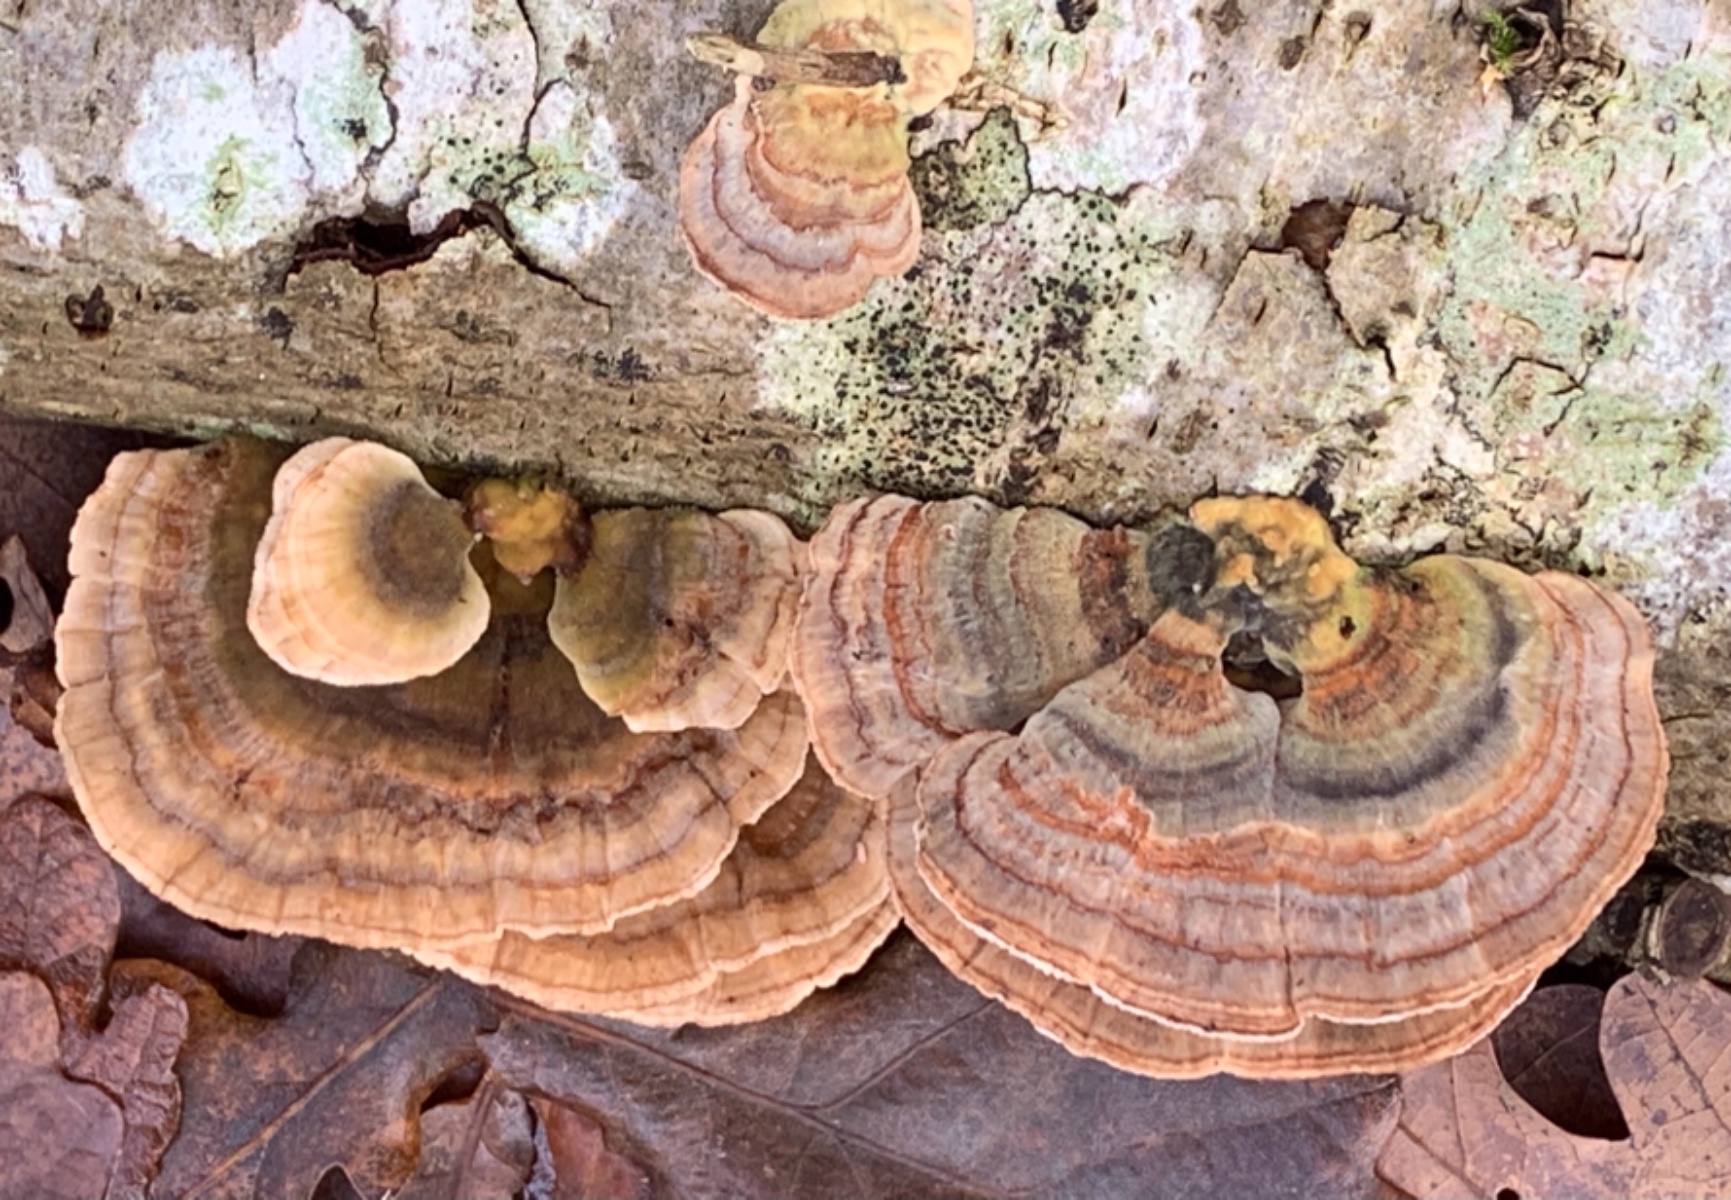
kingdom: Fungi
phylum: Basidiomycota
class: Agaricomycetes
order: Polyporales
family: Polyporaceae
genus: Trametes
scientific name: Trametes versicolor
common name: broget læderporesvamp
